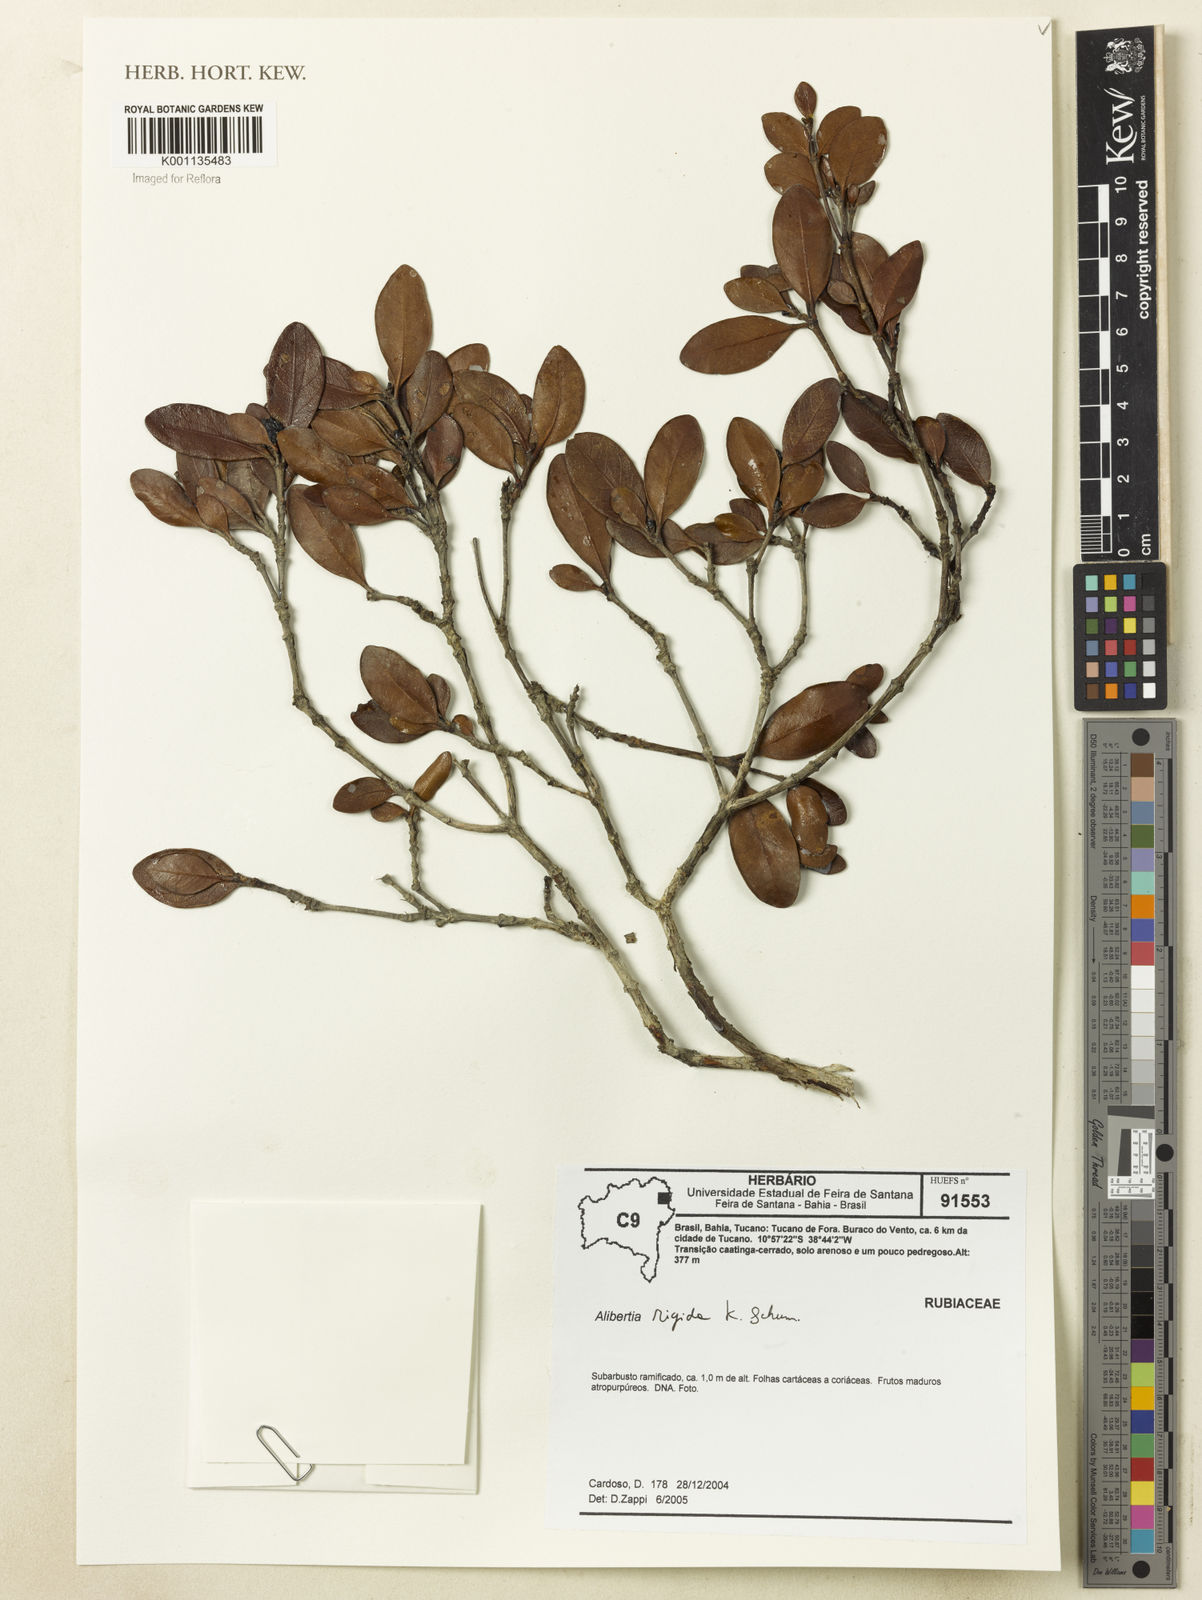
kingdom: Plantae
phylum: Tracheophyta
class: Magnoliopsida
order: Gentianales
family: Rubiaceae
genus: Cordiera
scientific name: Cordiera rigida
